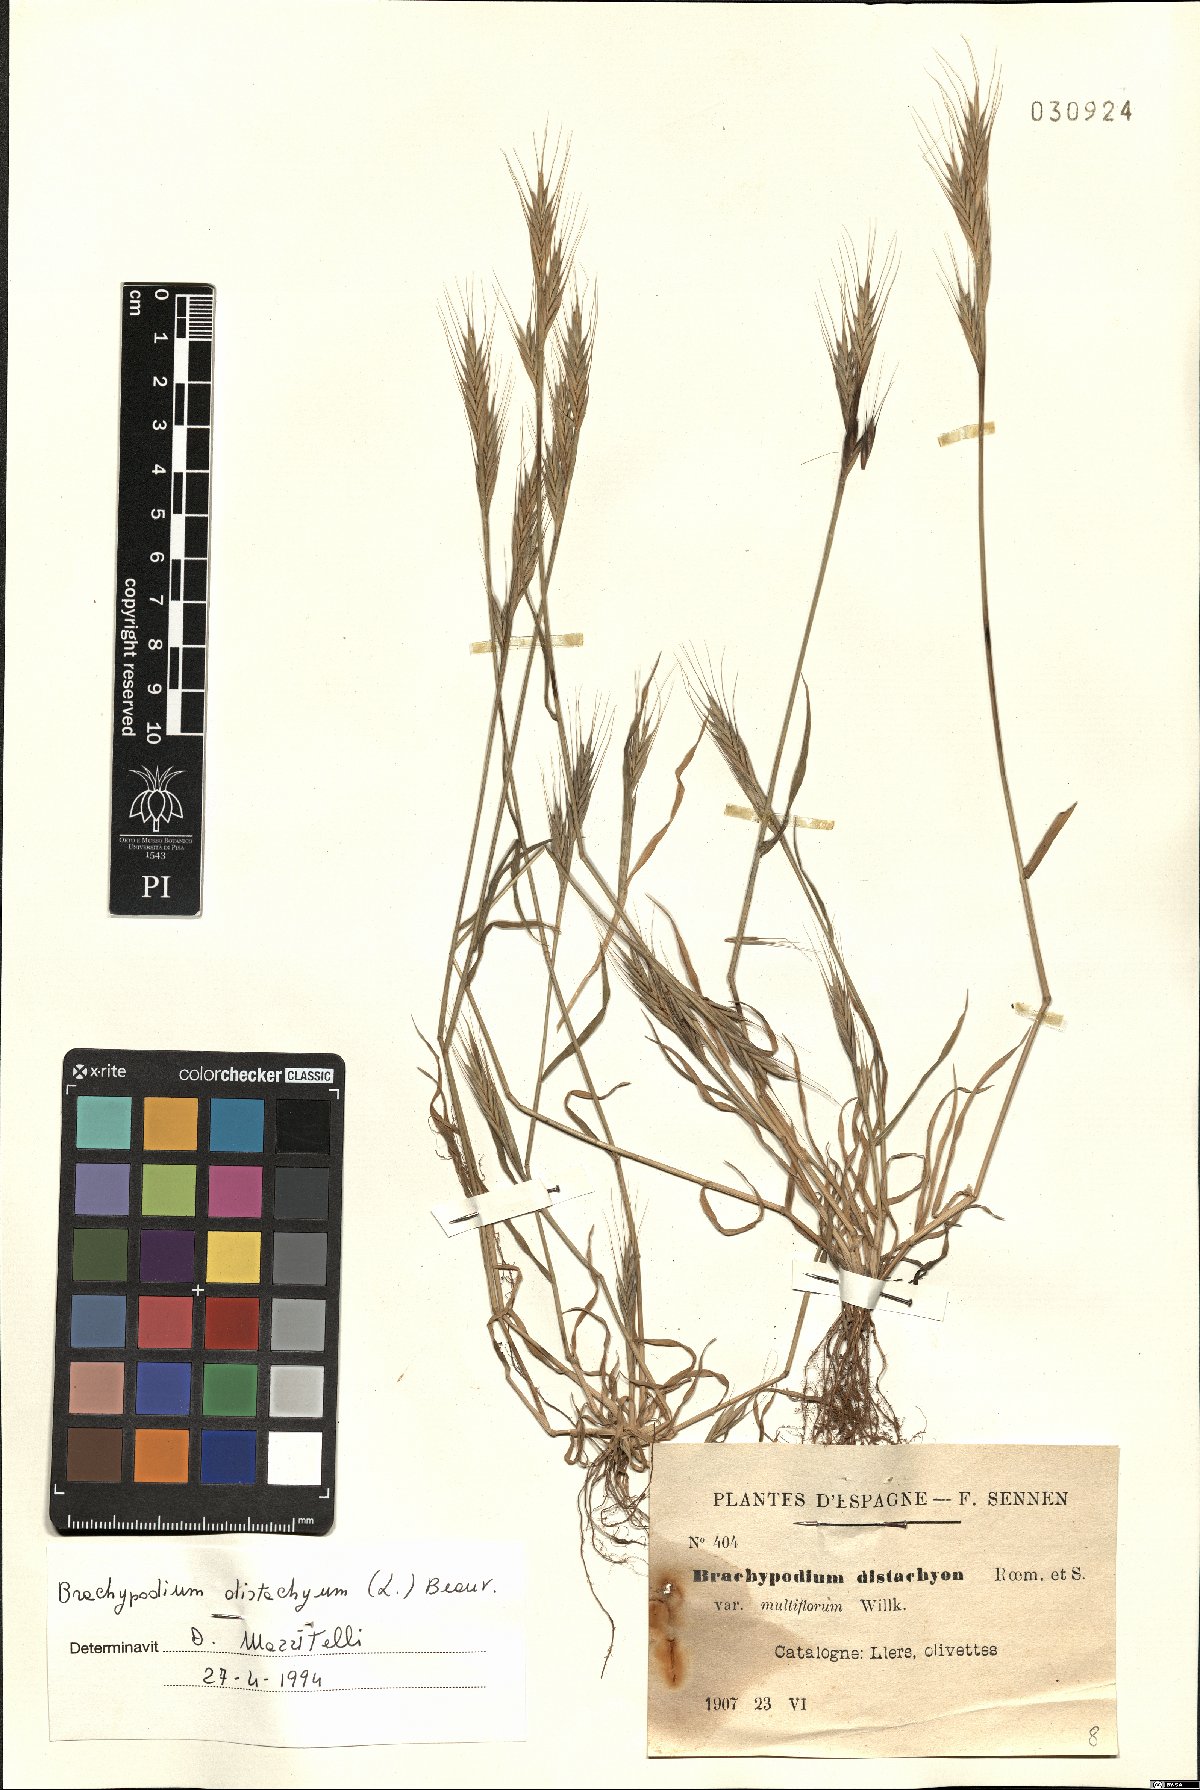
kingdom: Plantae
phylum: Tracheophyta
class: Liliopsida
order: Poales
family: Poaceae
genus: Brachypodium
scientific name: Brachypodium distachyon
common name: Stiff brome
